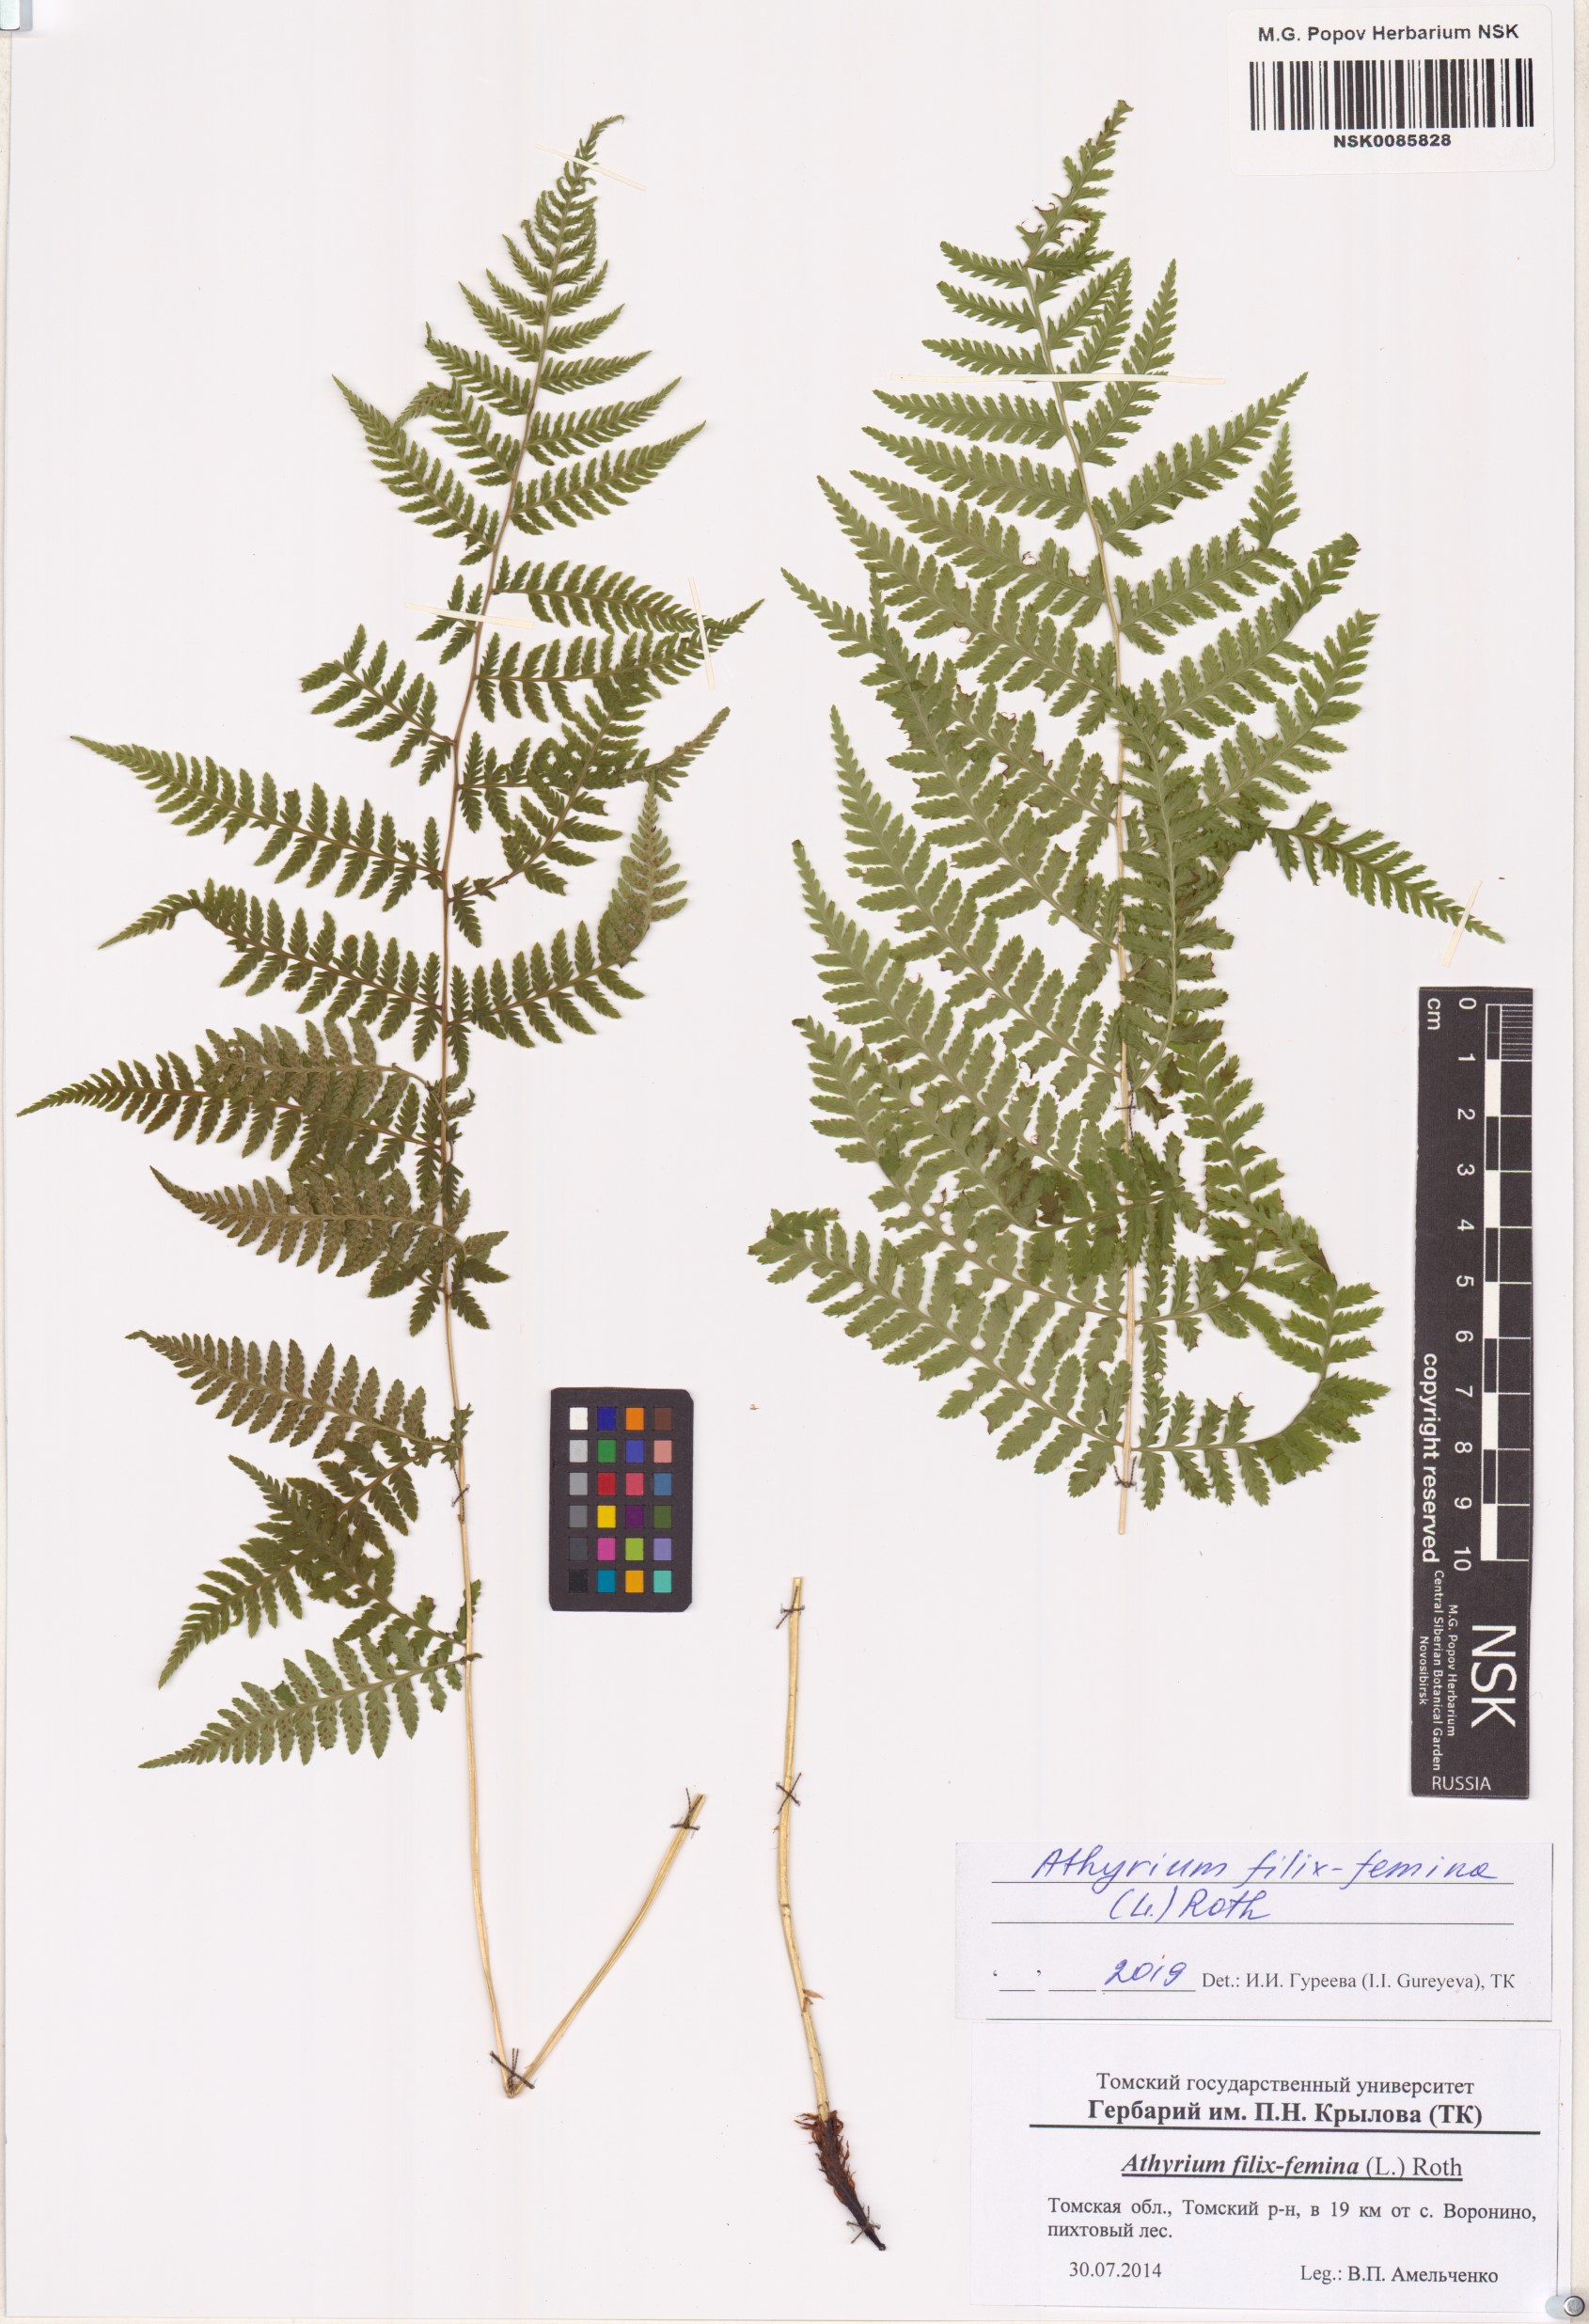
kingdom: Plantae
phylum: Tracheophyta
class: Polypodiopsida
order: Polypodiales
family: Athyriaceae
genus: Athyrium
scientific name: Athyrium filix-femina
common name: Lady fern
